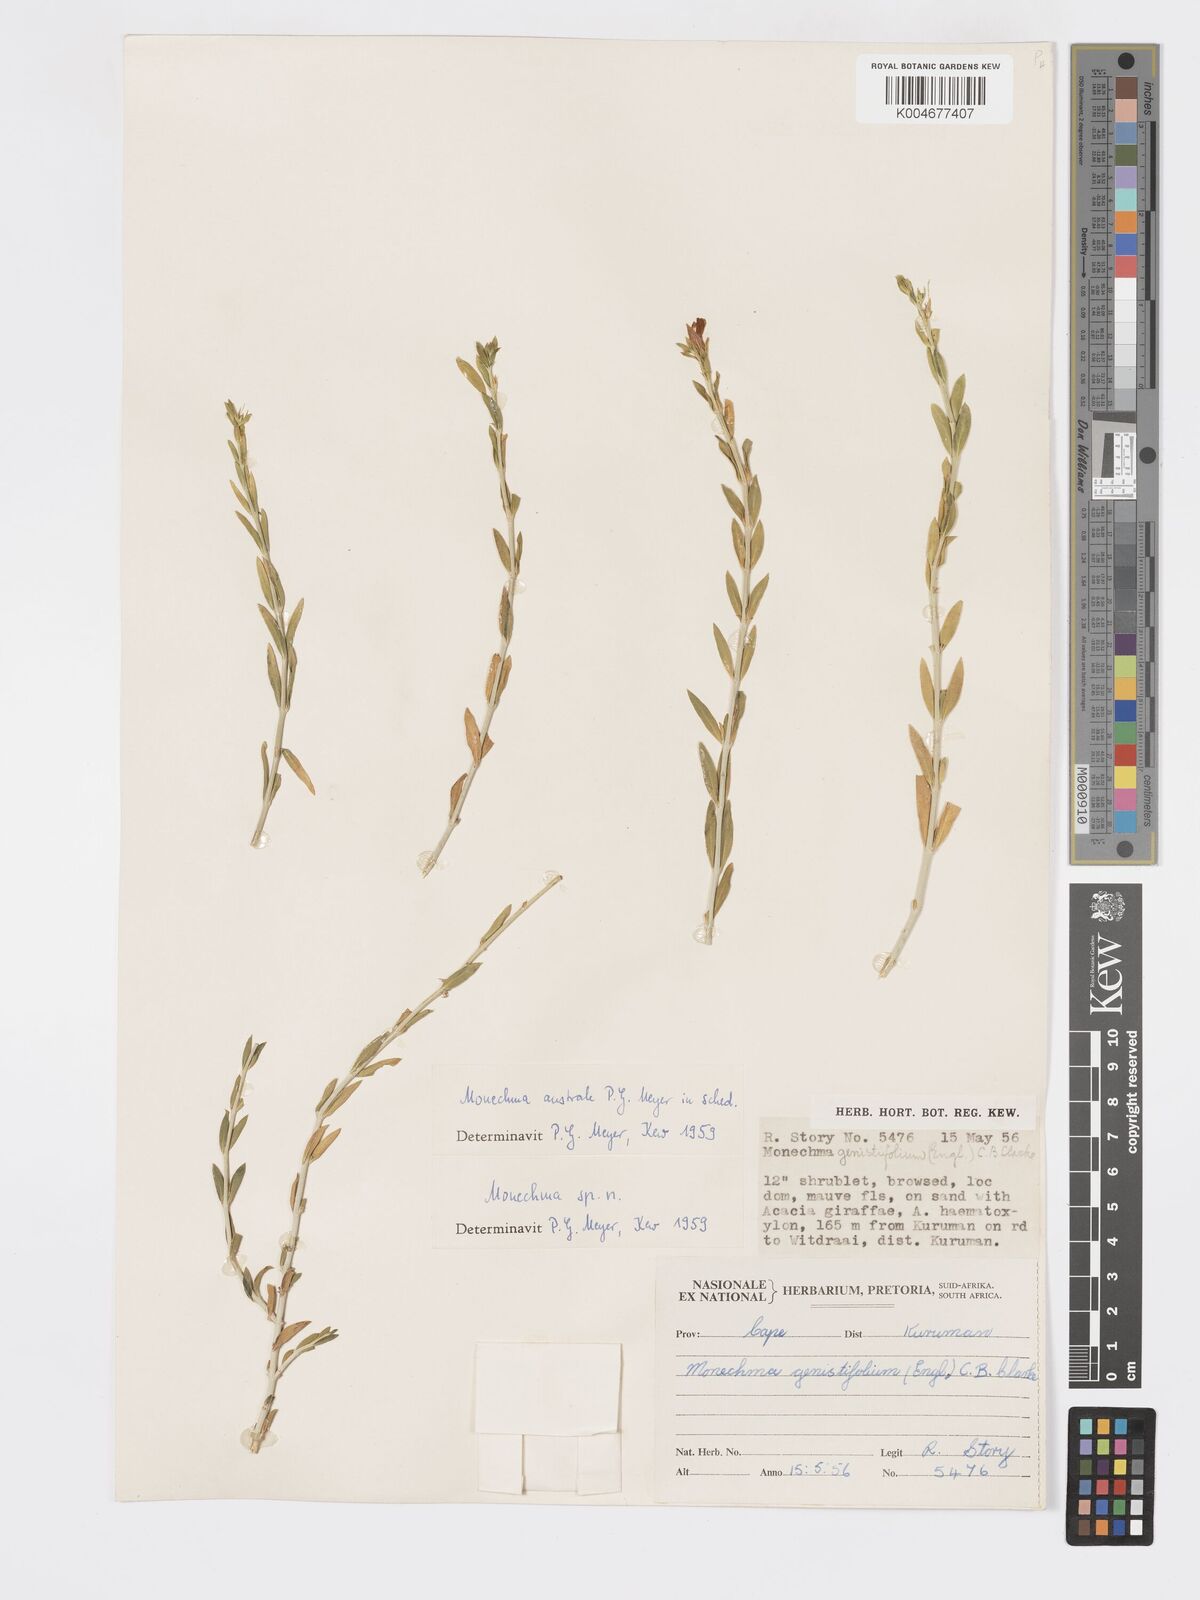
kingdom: Plantae
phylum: Tracheophyta
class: Magnoliopsida
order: Lamiales
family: Acanthaceae
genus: Pogonospermum
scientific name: Pogonospermum
